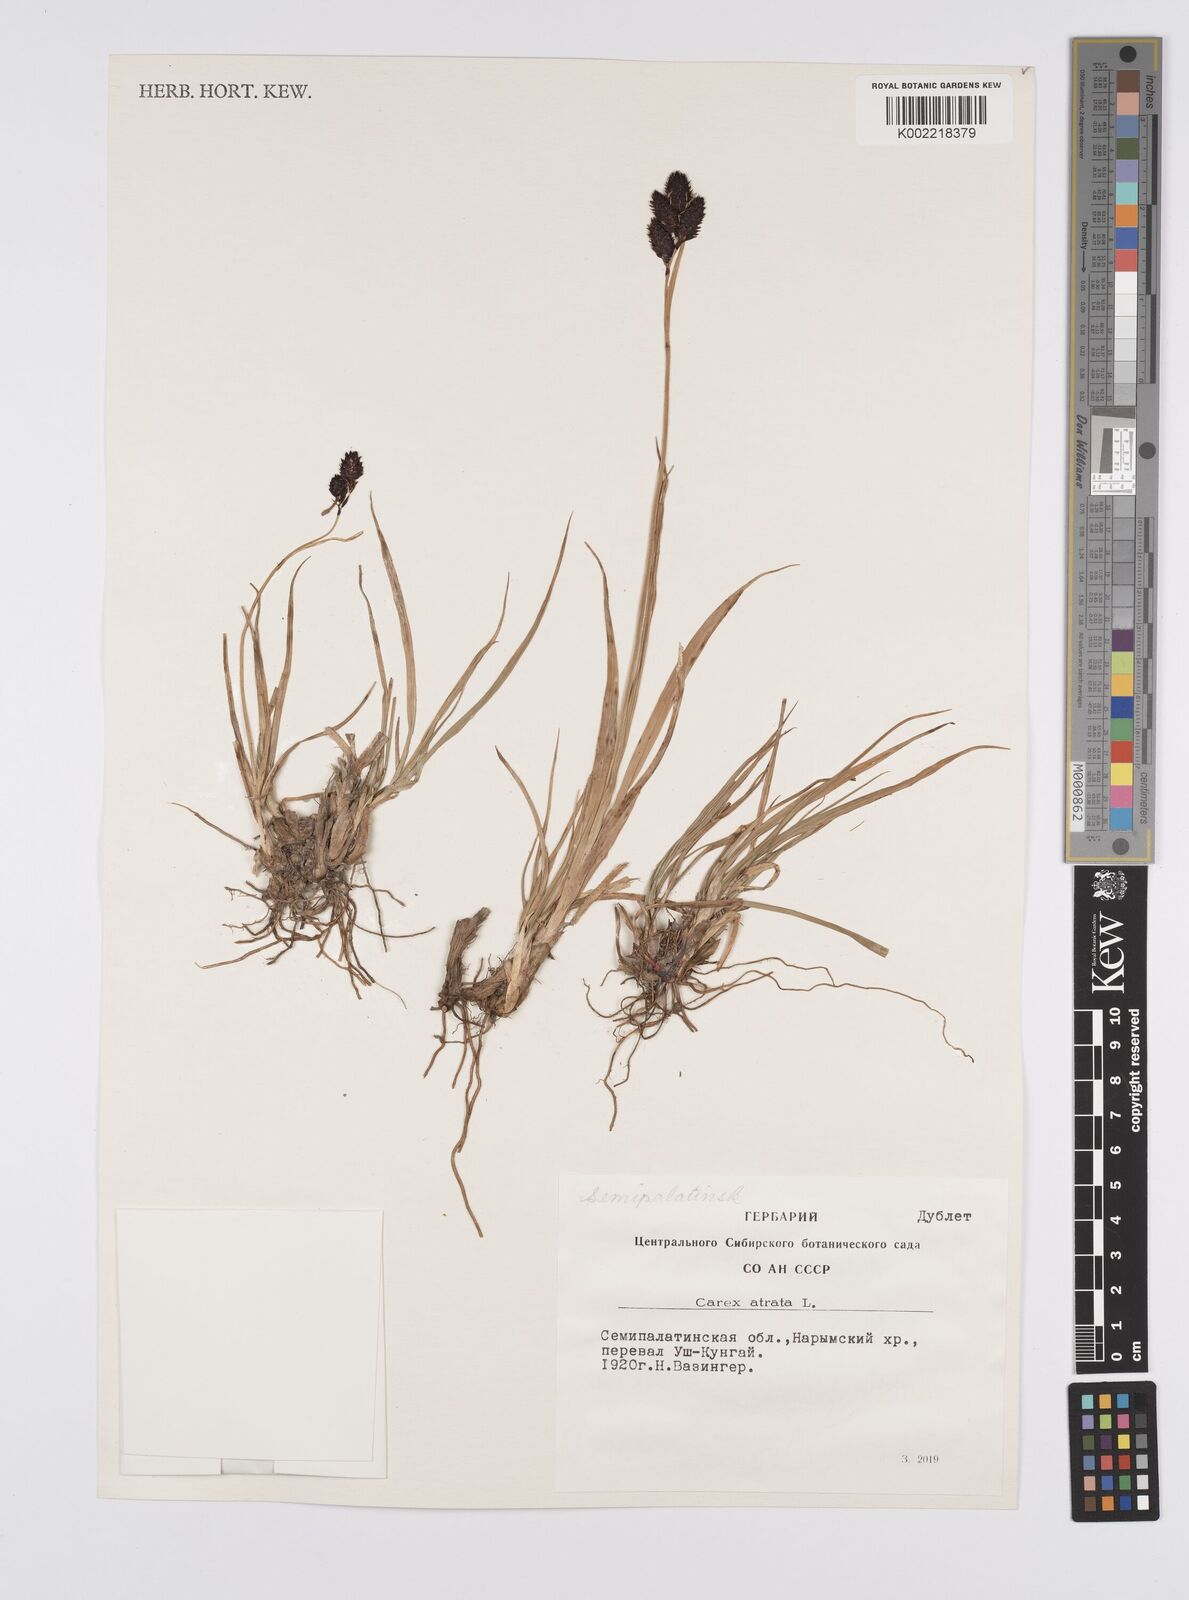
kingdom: Plantae
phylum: Tracheophyta
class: Liliopsida
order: Poales
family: Cyperaceae
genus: Carex
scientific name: Carex atrata
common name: Black alpine sedge
